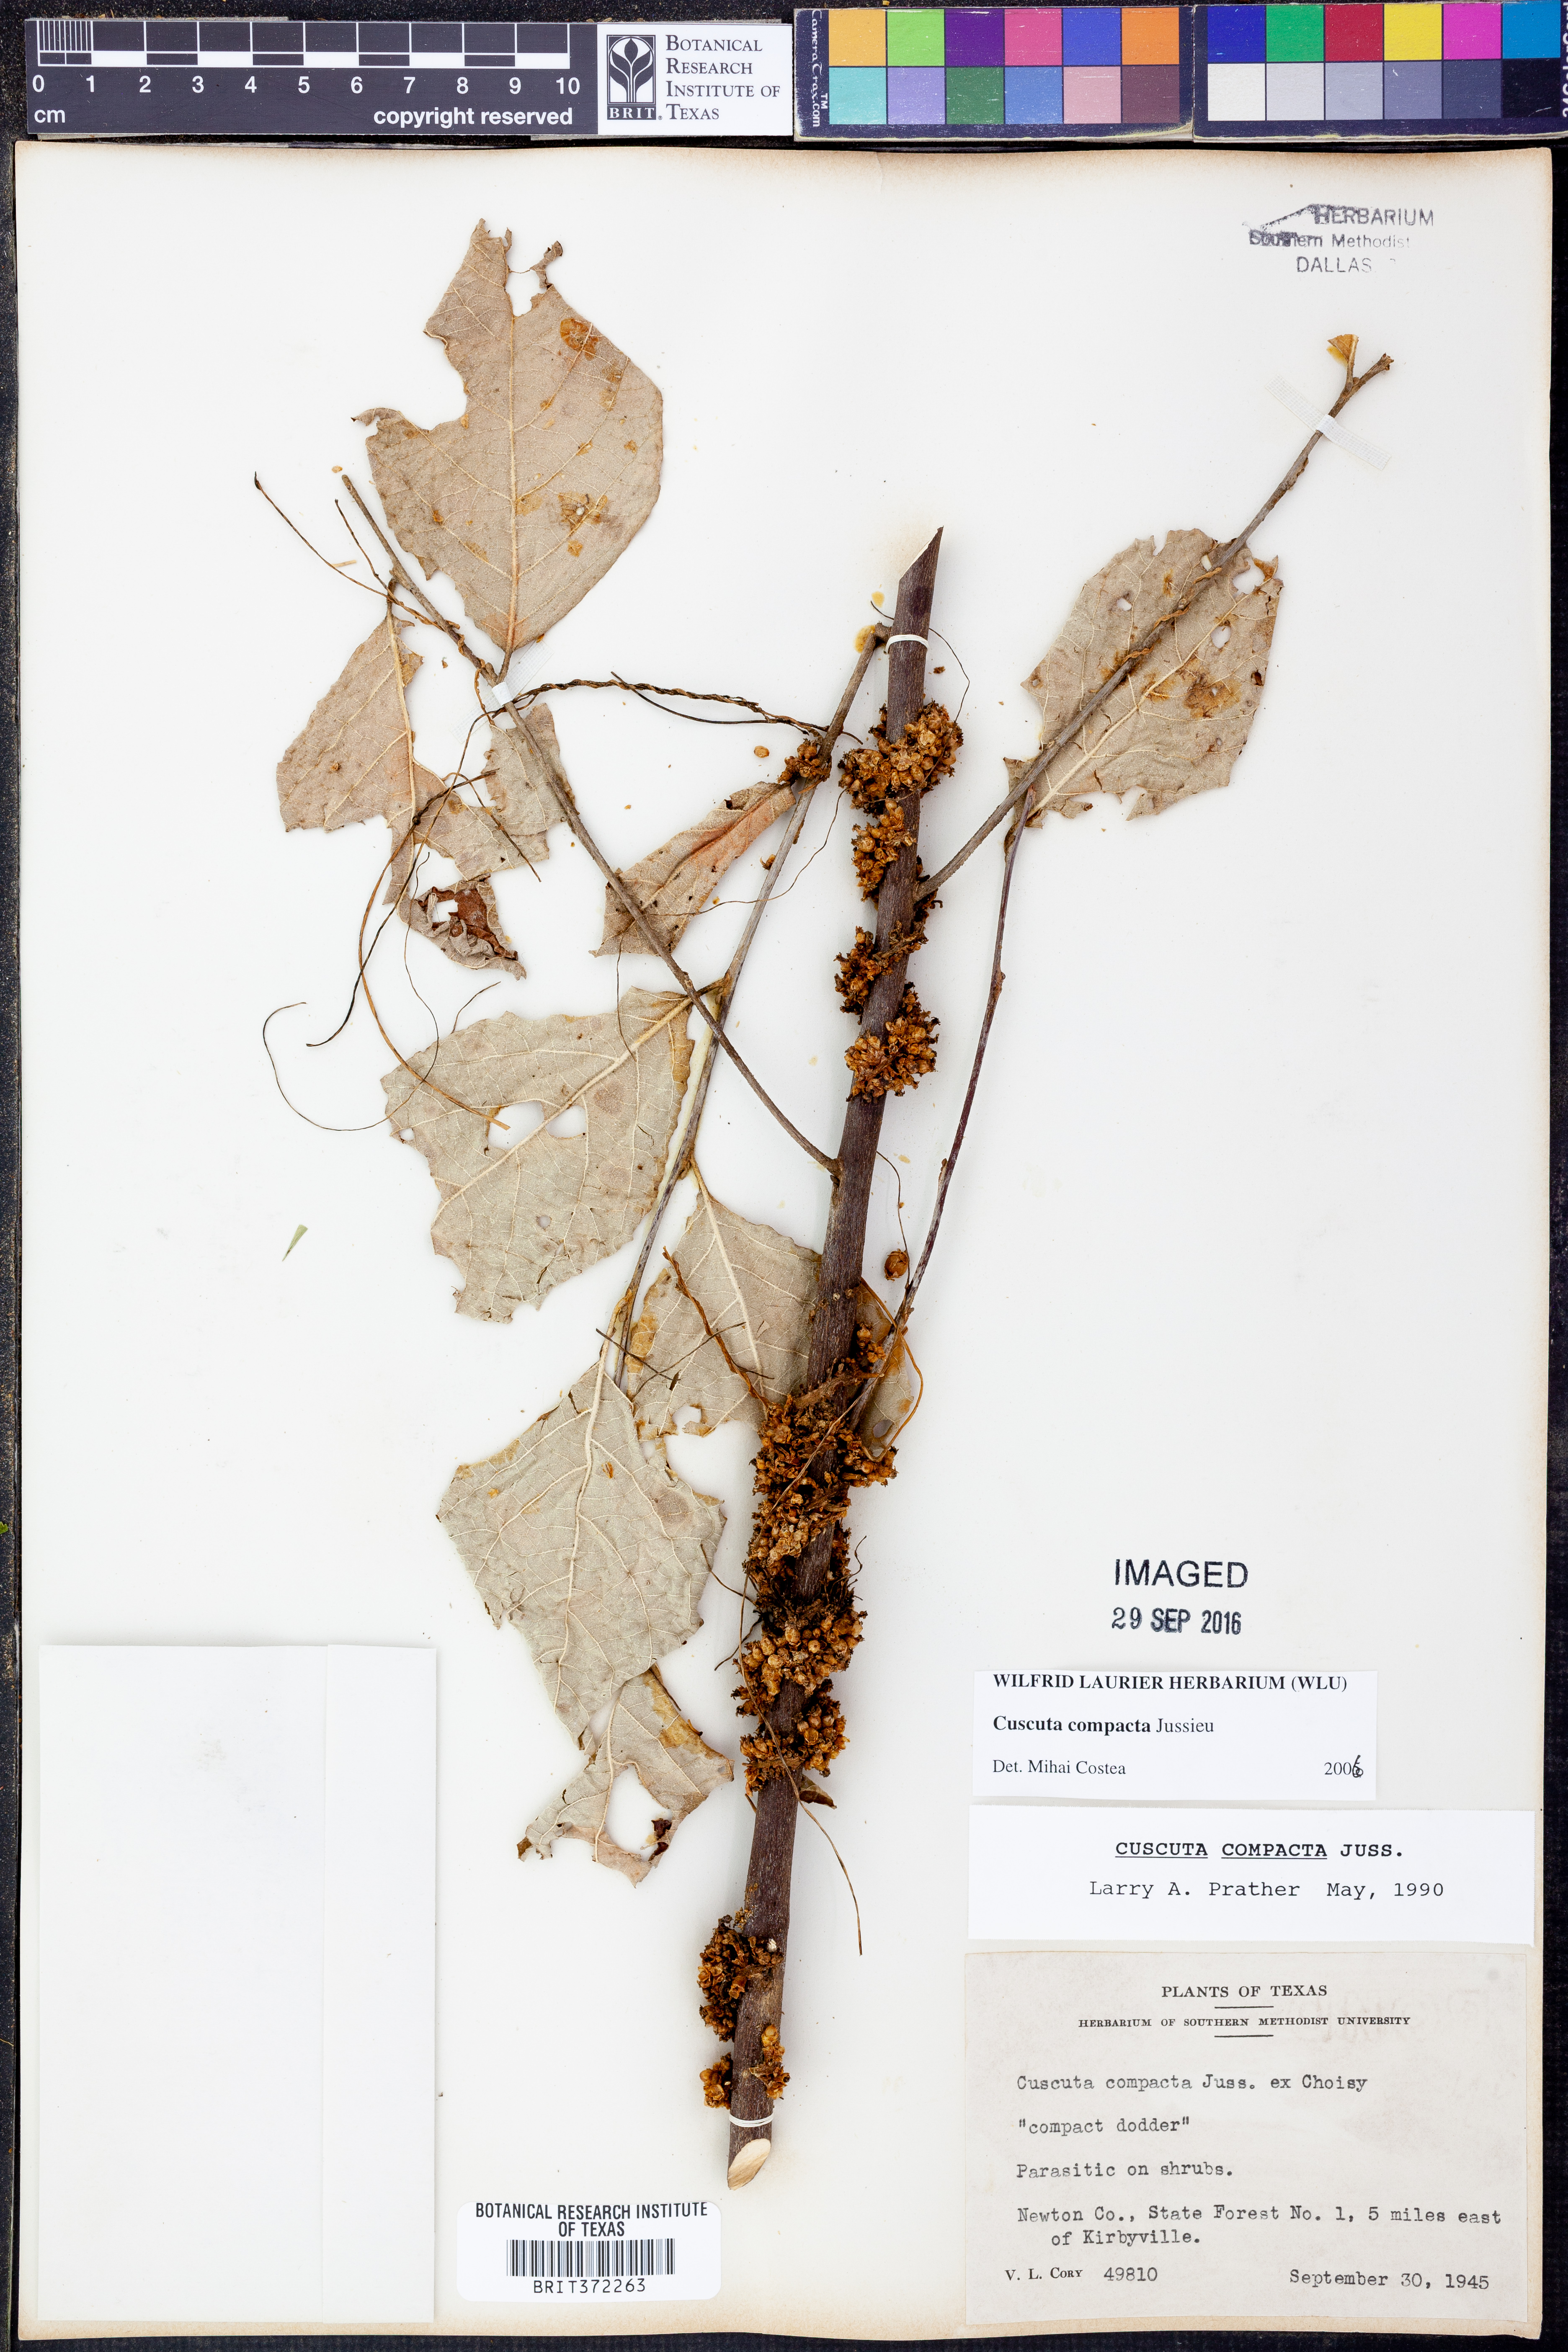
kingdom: Plantae
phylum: Tracheophyta
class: Magnoliopsida
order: Solanales
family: Convolvulaceae
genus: Cuscuta
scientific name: Cuscuta compacta
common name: Compact dodder
